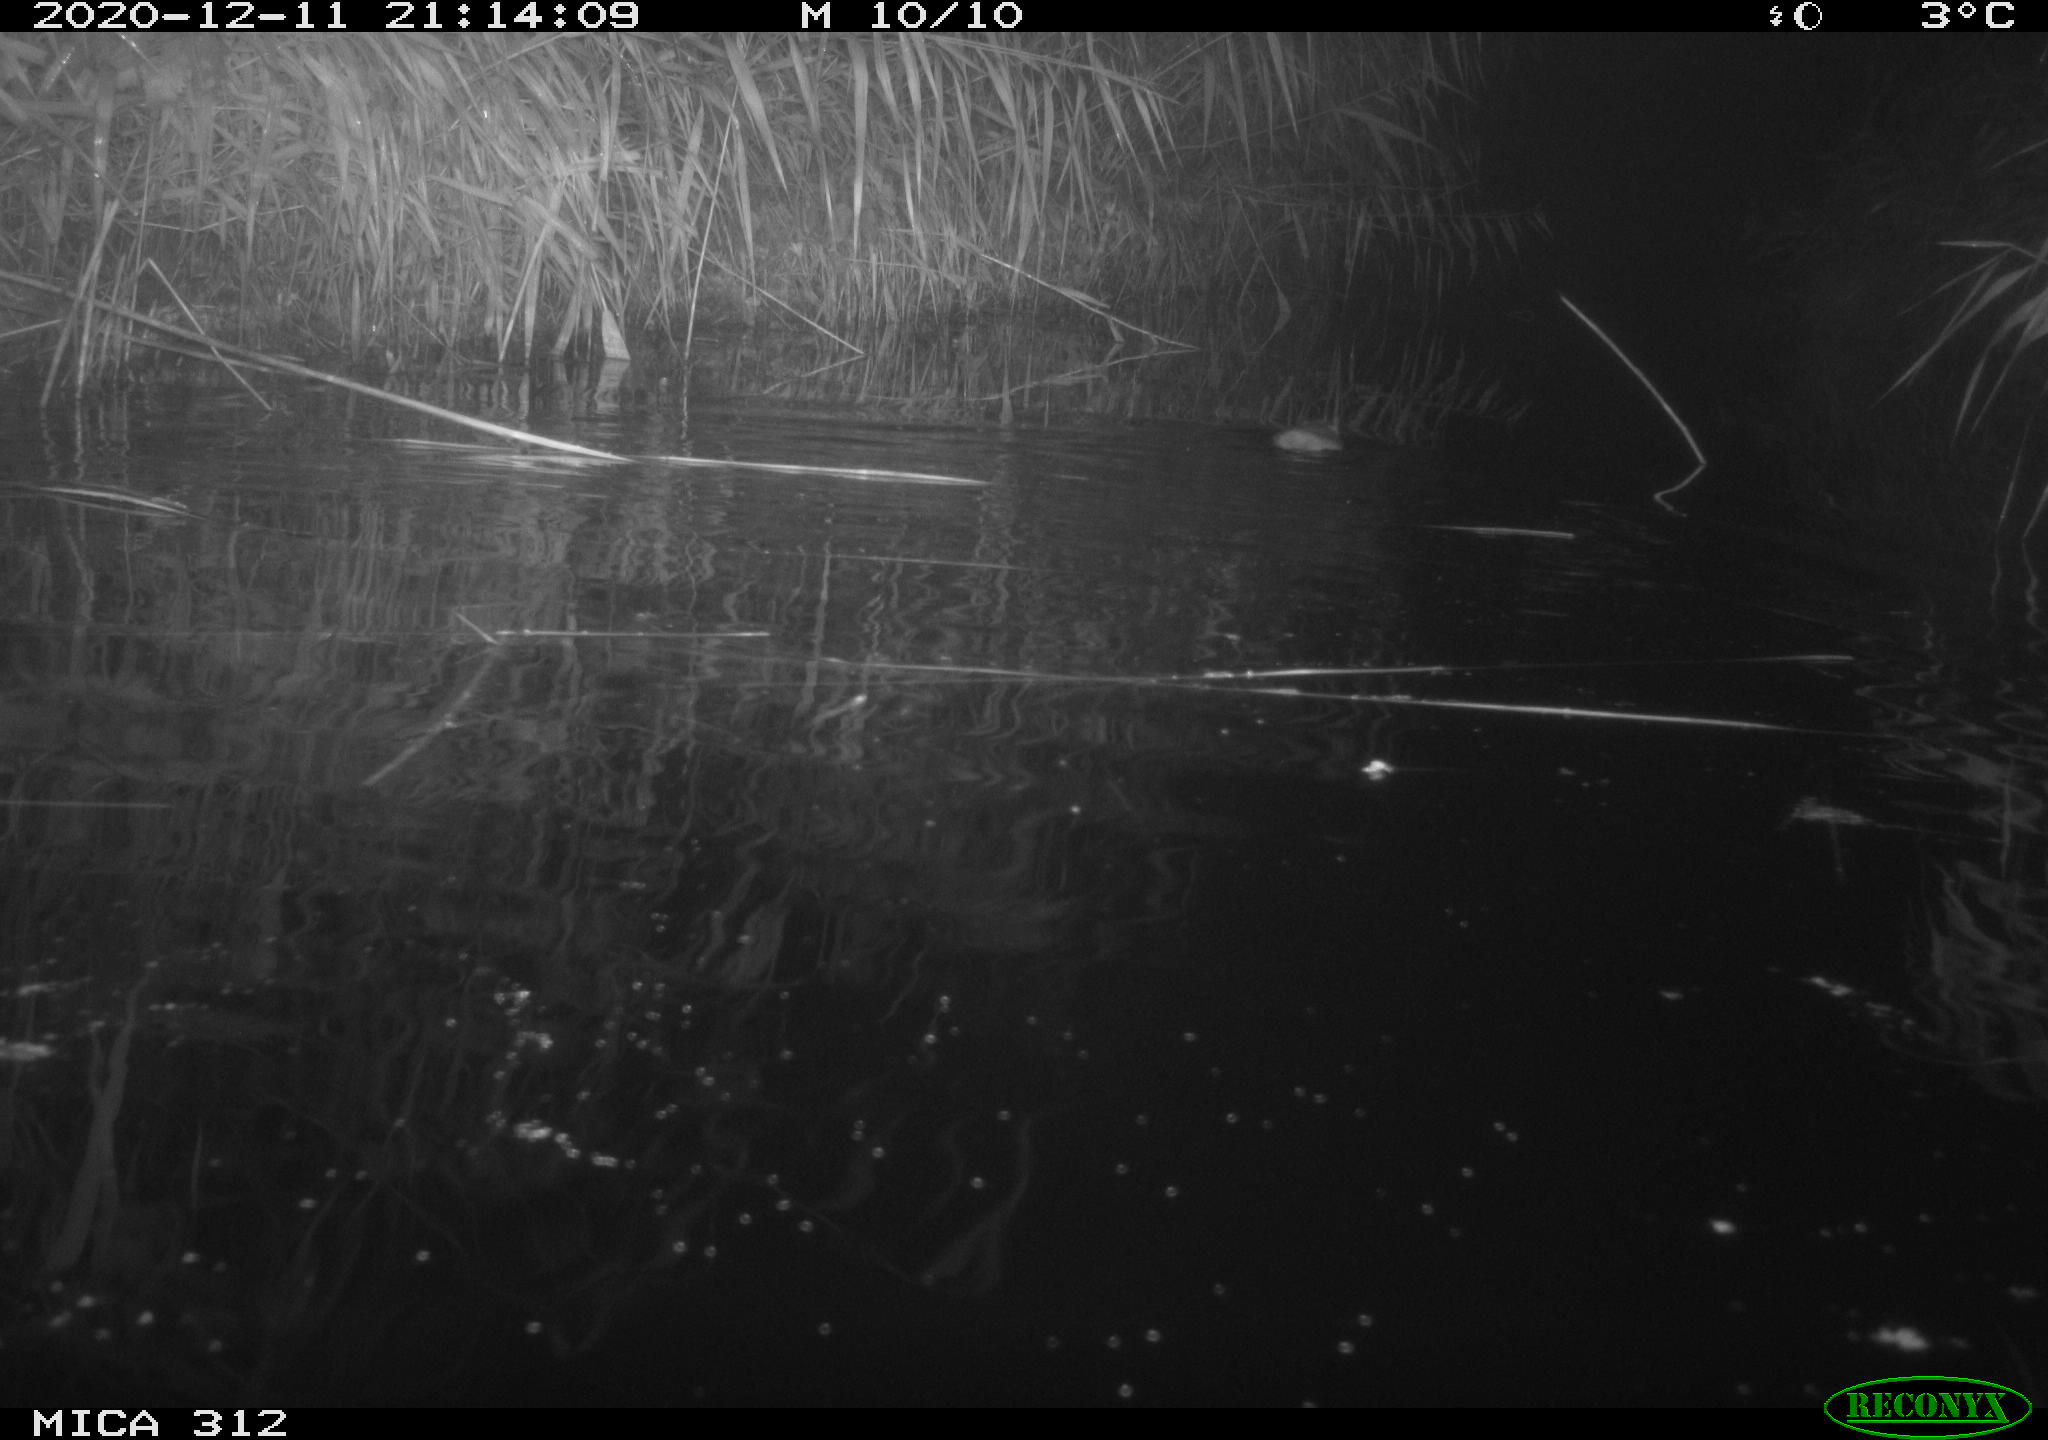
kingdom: Animalia
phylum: Chordata
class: Mammalia
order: Rodentia
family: Muridae
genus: Rattus
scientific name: Rattus norvegicus
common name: Brown rat
